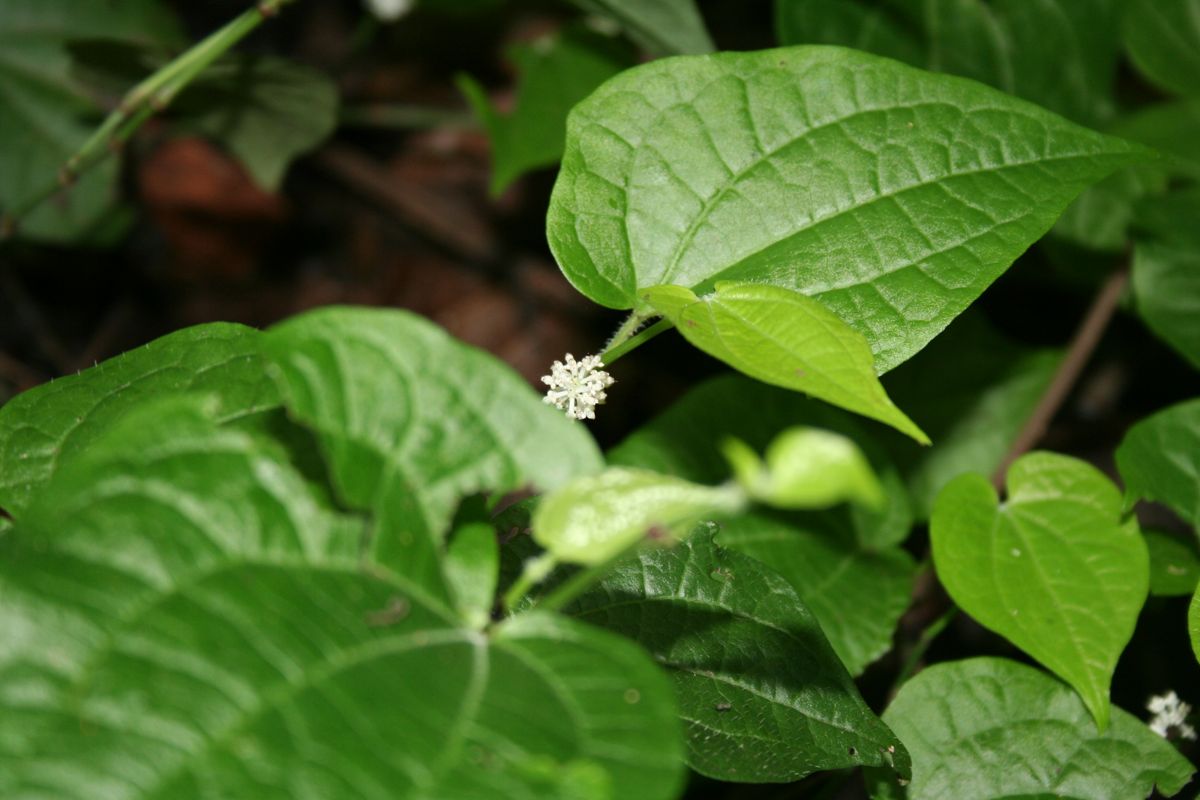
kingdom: Plantae
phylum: Tracheophyta
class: Magnoliopsida
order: Piperales
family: Piperaceae
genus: Piper
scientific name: Piper guazacapanense
